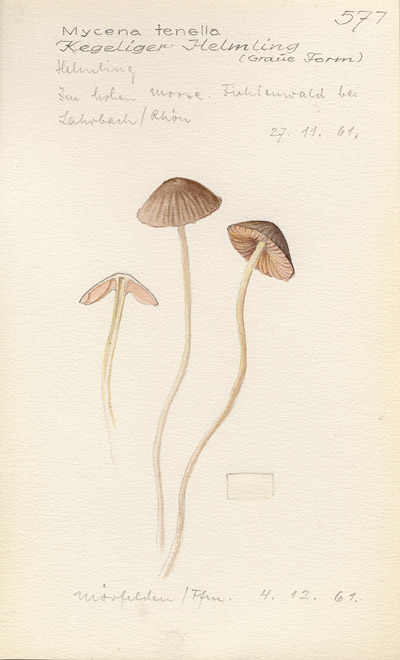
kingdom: Fungi
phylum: Basidiomycota
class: Agaricomycetes
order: Agaricales
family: Mycenaceae
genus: Mycena
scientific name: Mycena metata
